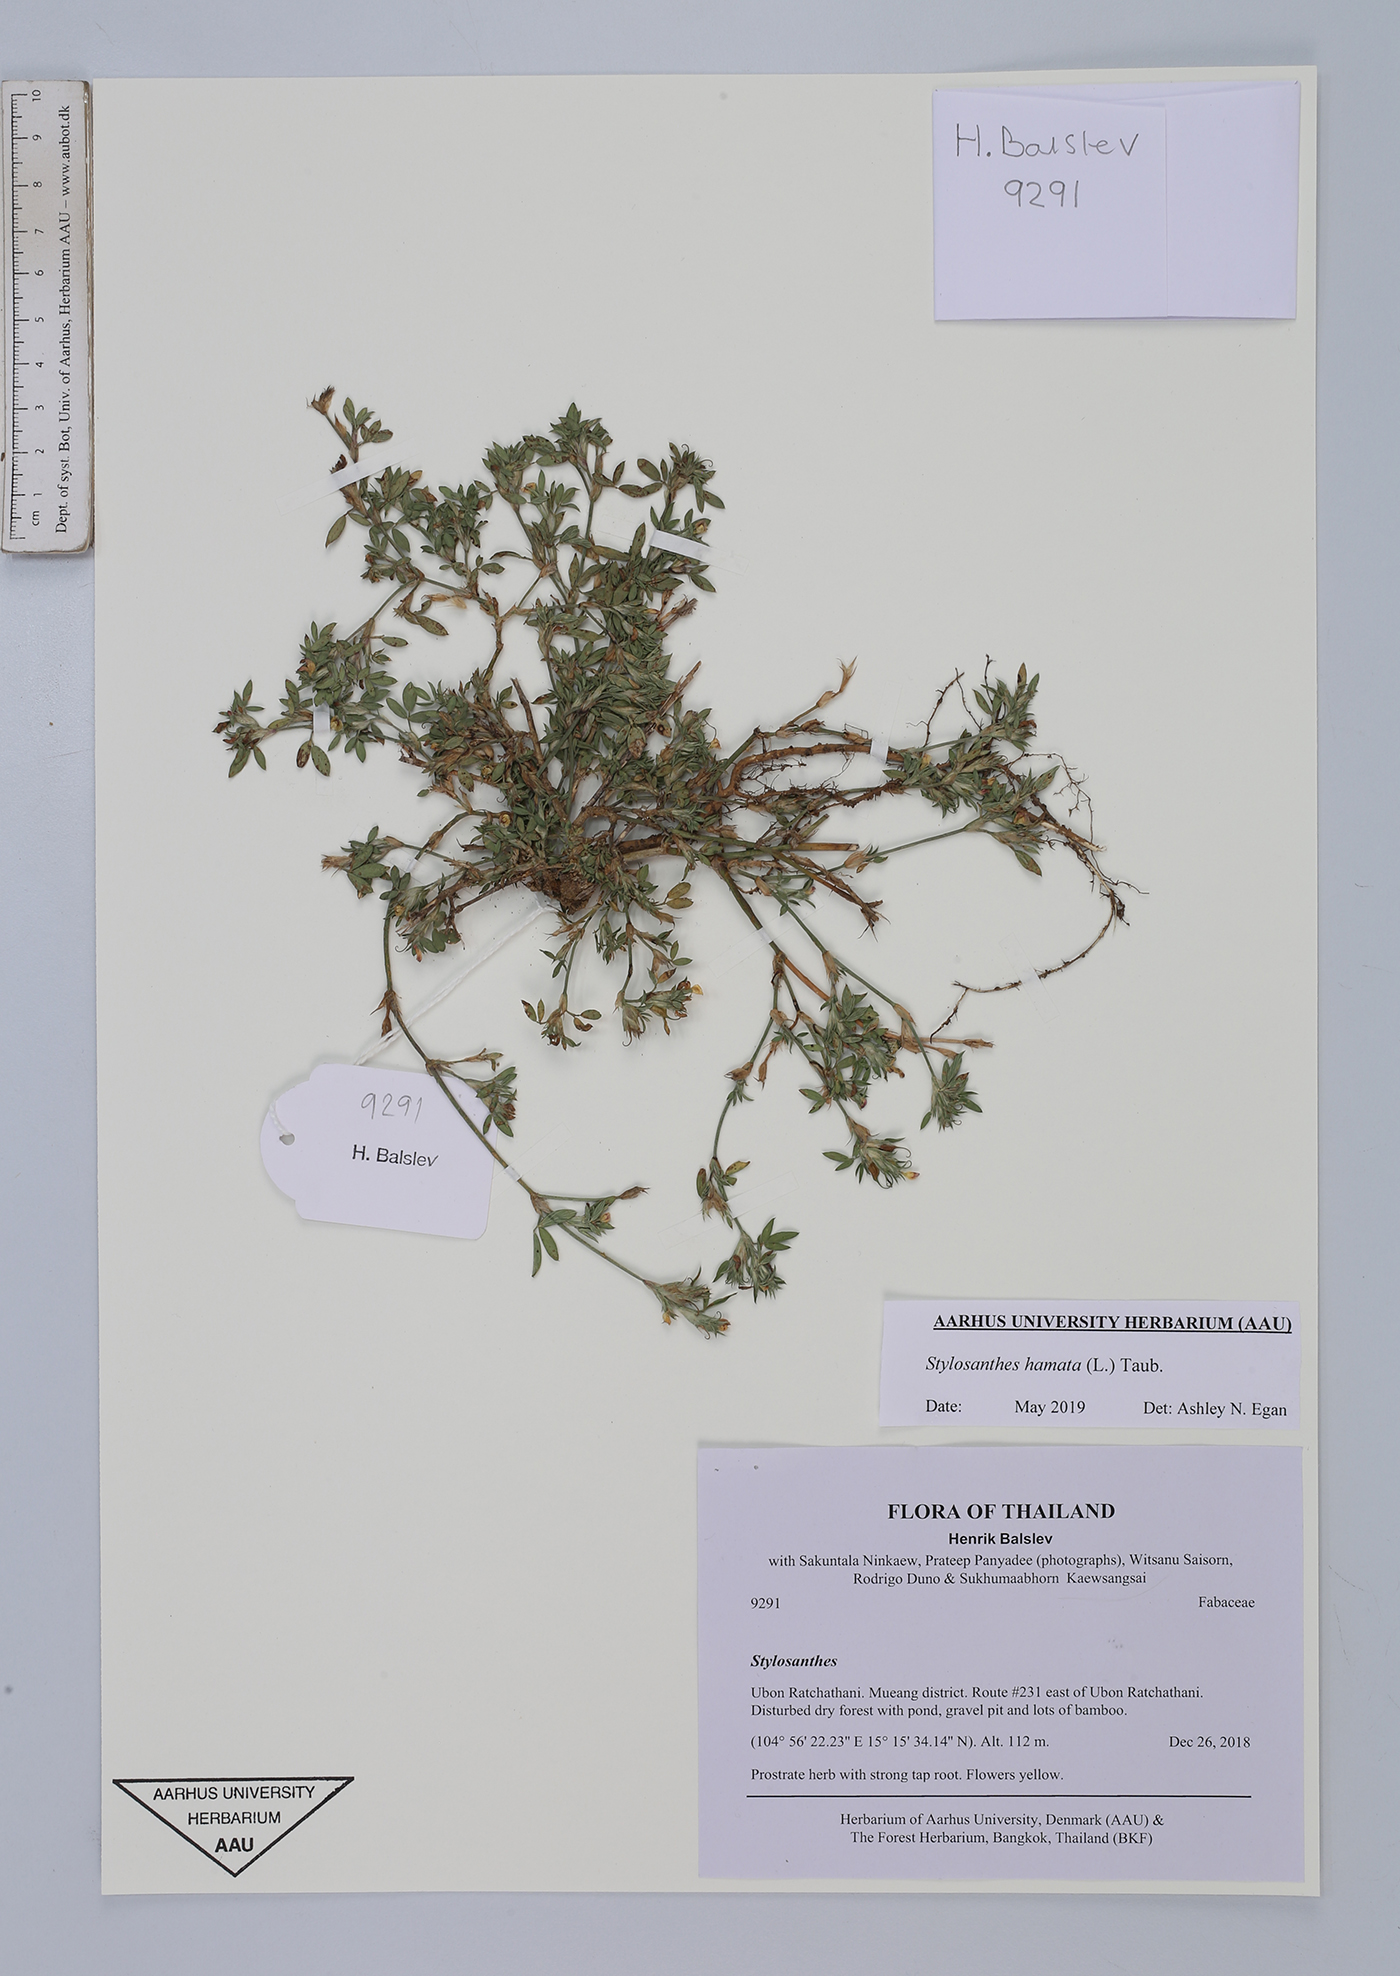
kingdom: Plantae
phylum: Tracheophyta
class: Magnoliopsida
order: Fabales
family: Fabaceae
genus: Stylosanthes
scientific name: Stylosanthes hamata
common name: Cheesytoes
